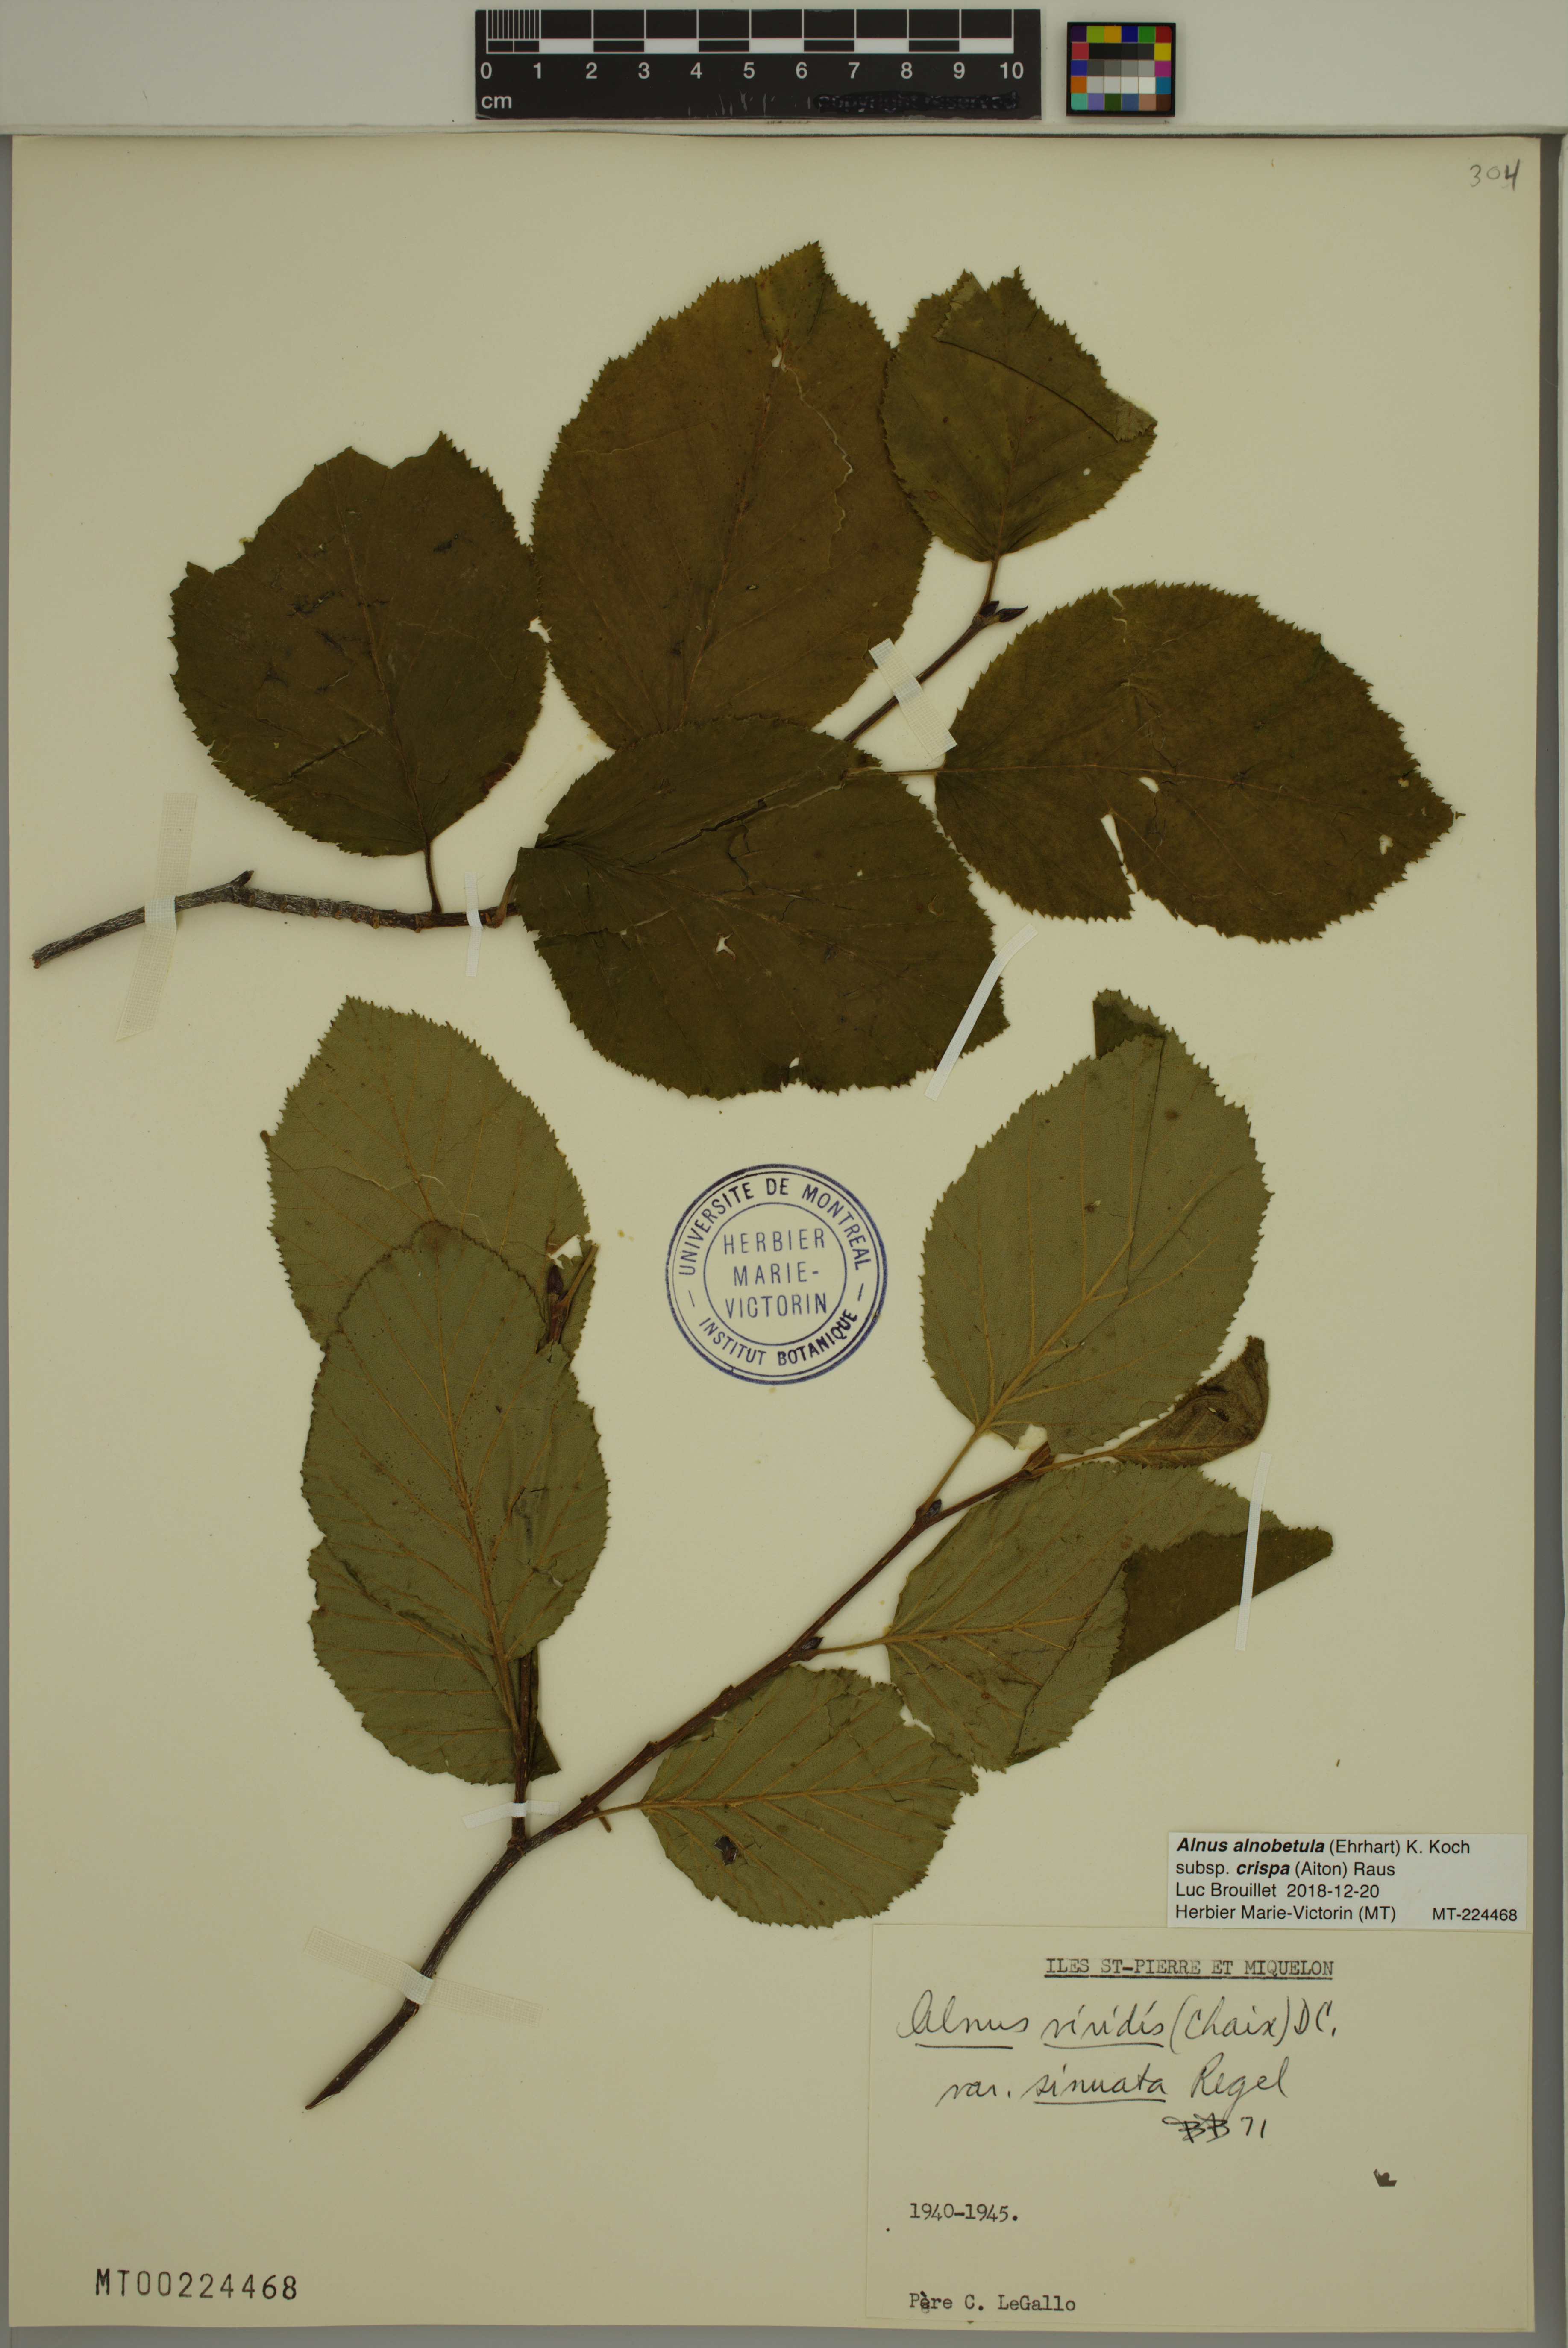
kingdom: Plantae
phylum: Tracheophyta
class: Magnoliopsida
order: Fagales
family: Betulaceae
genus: Alnus
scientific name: Alnus alnobetula
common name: Green alder
